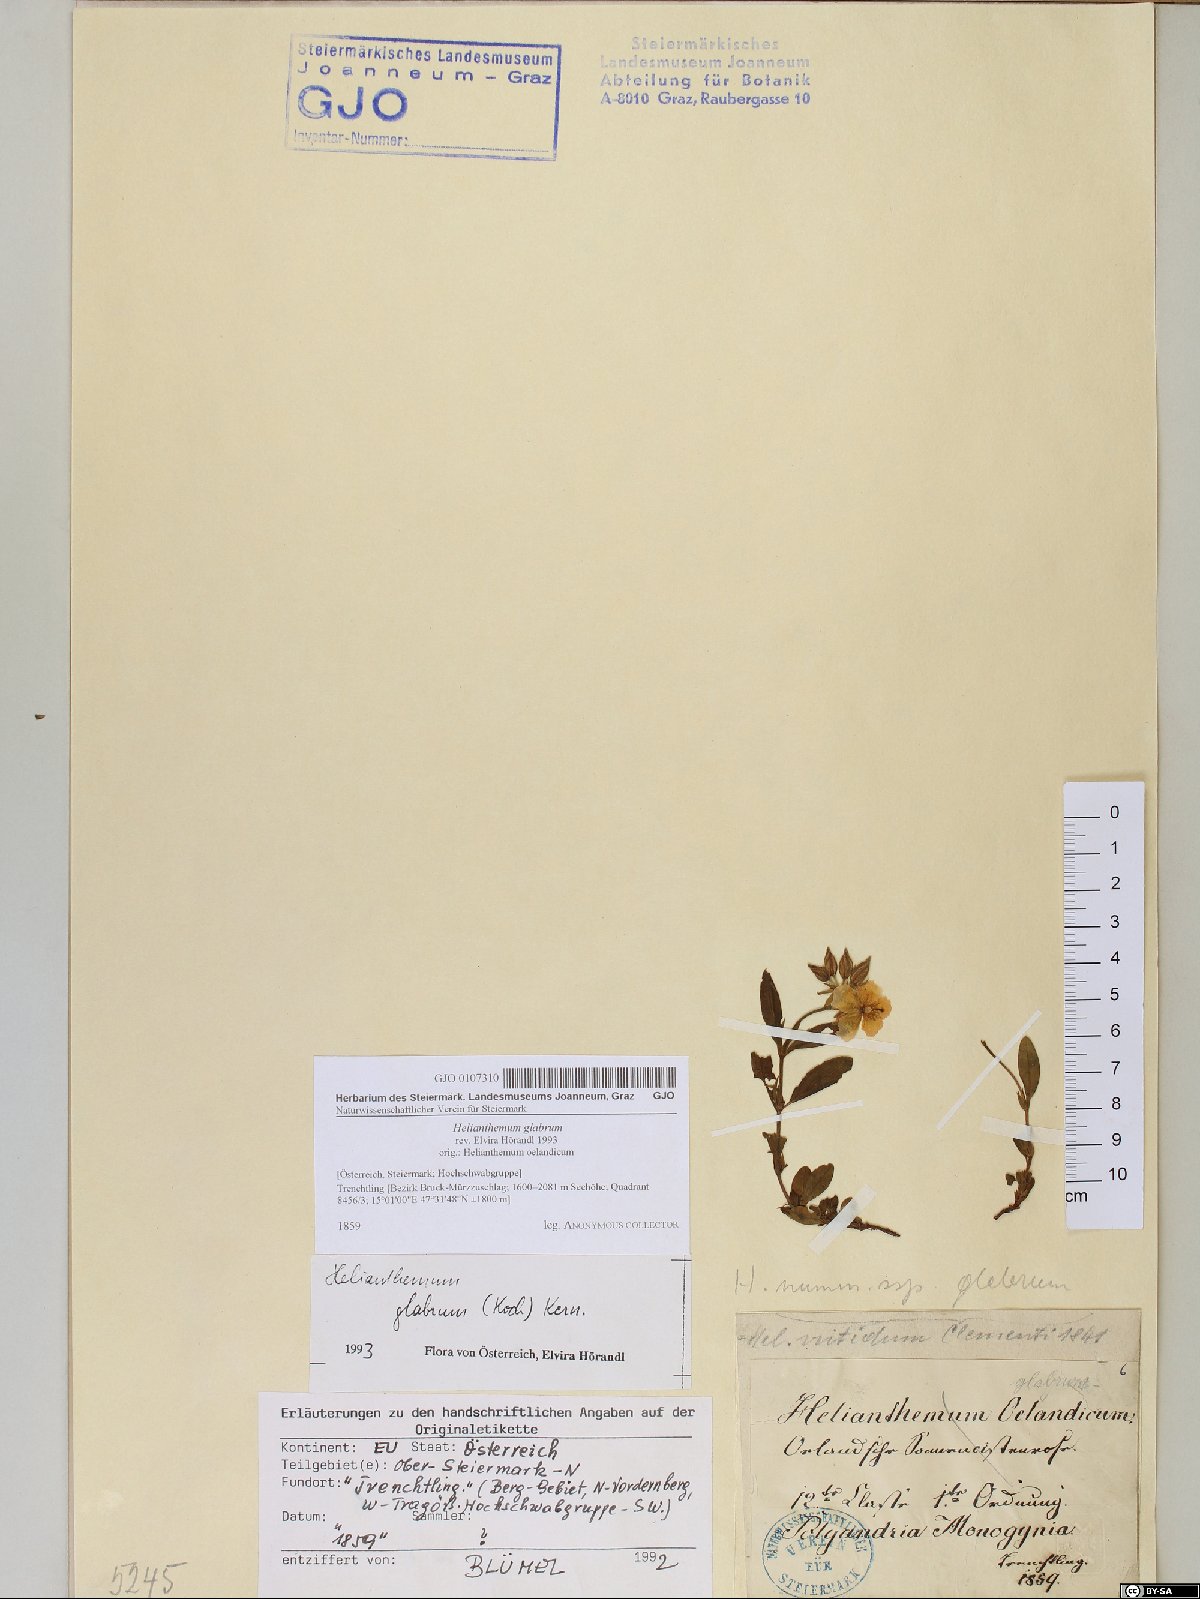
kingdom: Plantae
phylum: Tracheophyta
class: Magnoliopsida
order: Malvales
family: Cistaceae
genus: Helianthemum
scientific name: Helianthemum nummularium
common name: Common rock-rose
